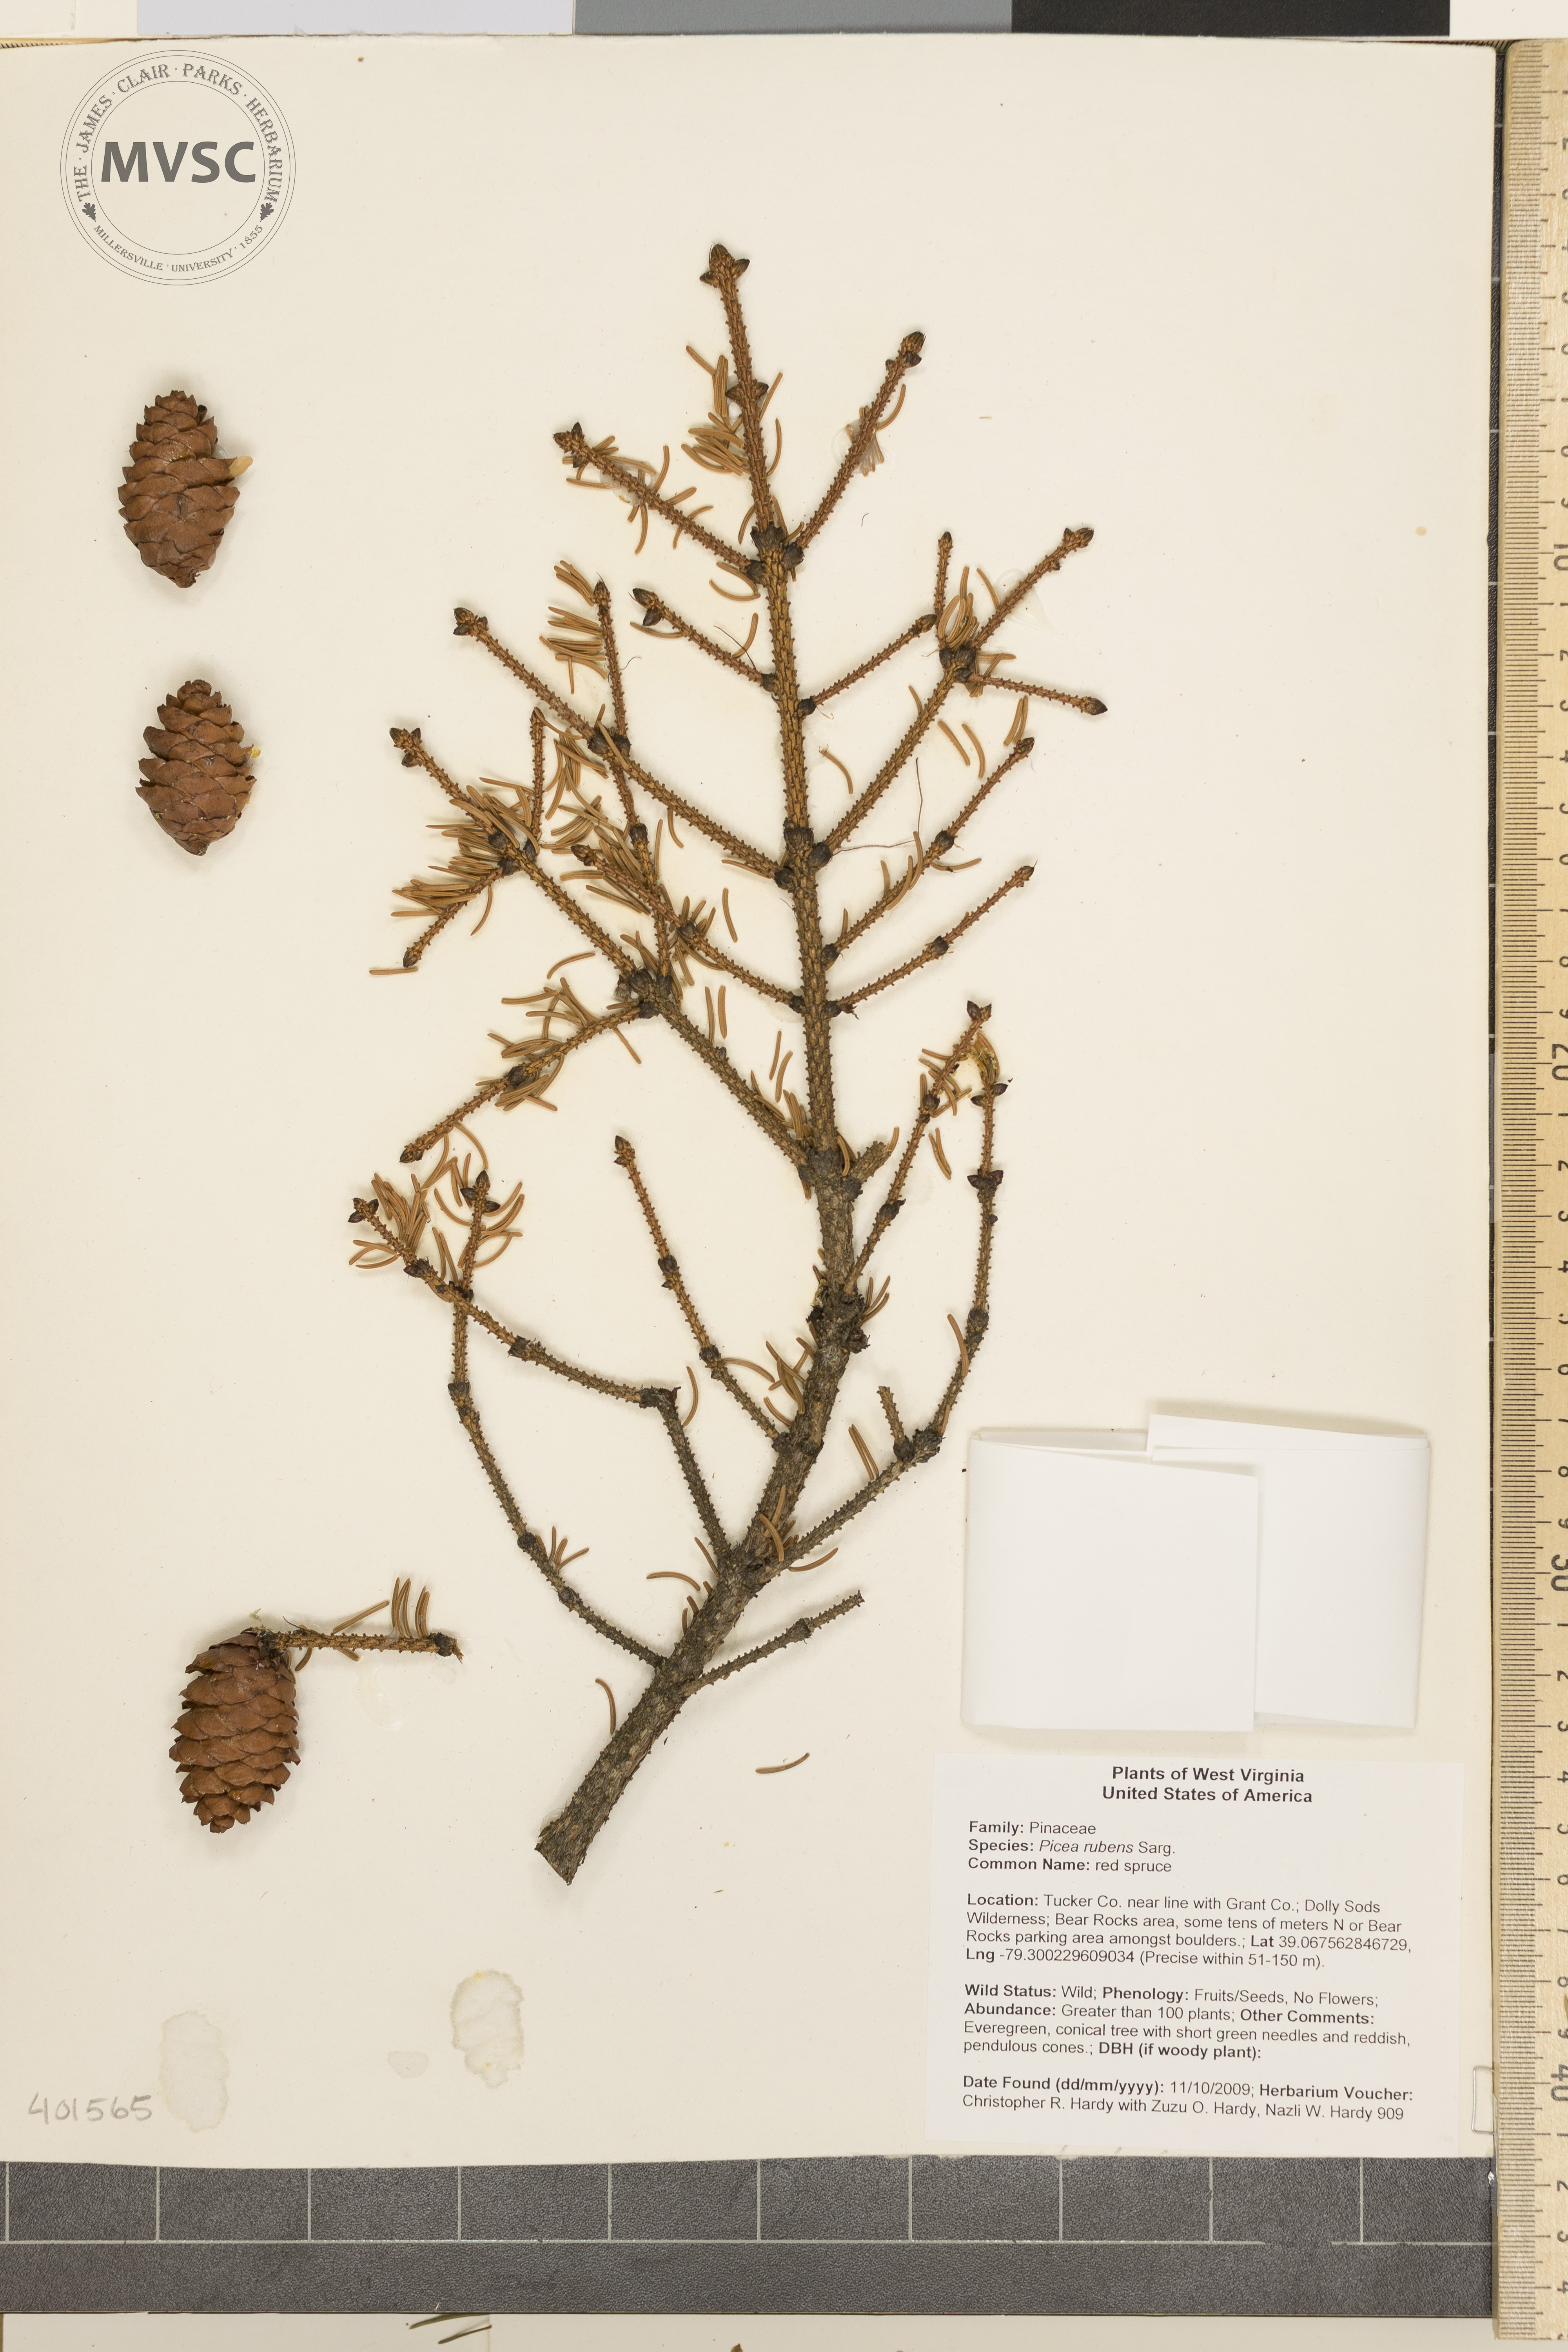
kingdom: Plantae
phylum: Tracheophyta
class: Pinopsida
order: Pinales
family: Pinaceae
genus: Picea
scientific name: Picea rubens
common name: red spruce
